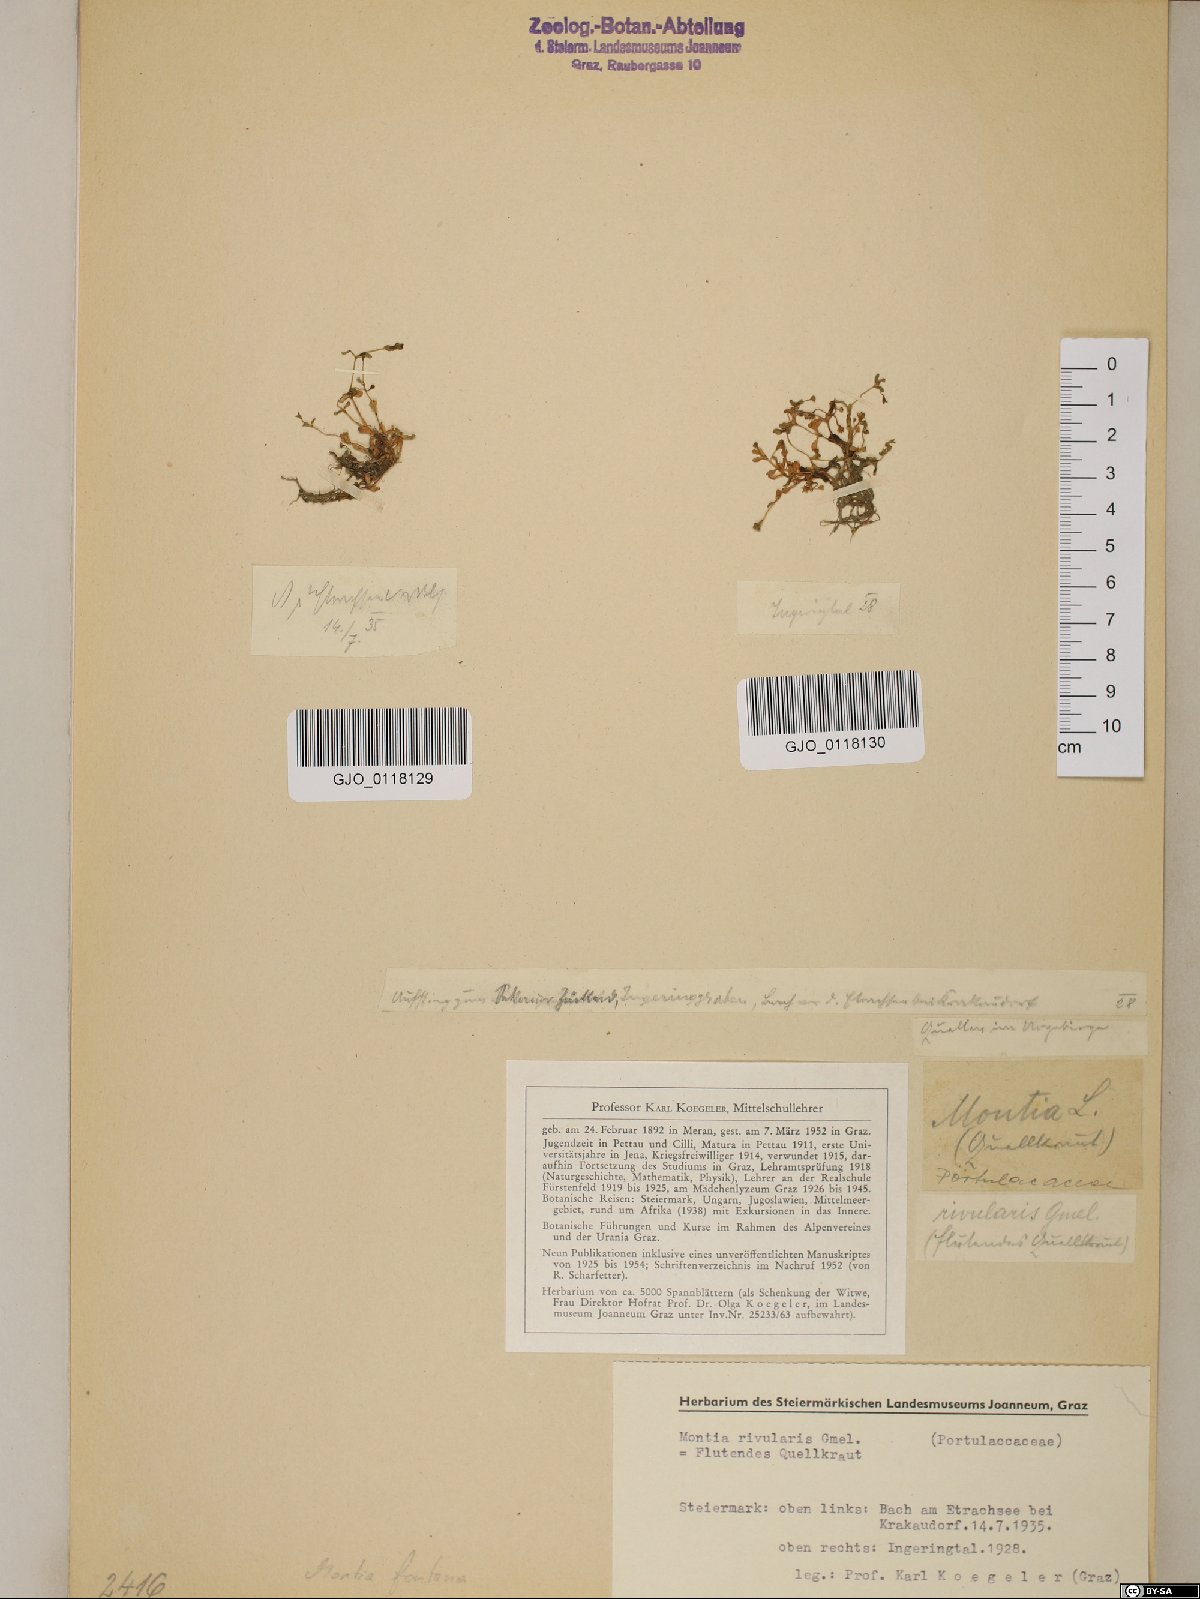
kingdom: Plantae
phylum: Tracheophyta
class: Magnoliopsida
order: Caryophyllales
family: Montiaceae
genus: Montia
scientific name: Montia fontana
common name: Blinks
